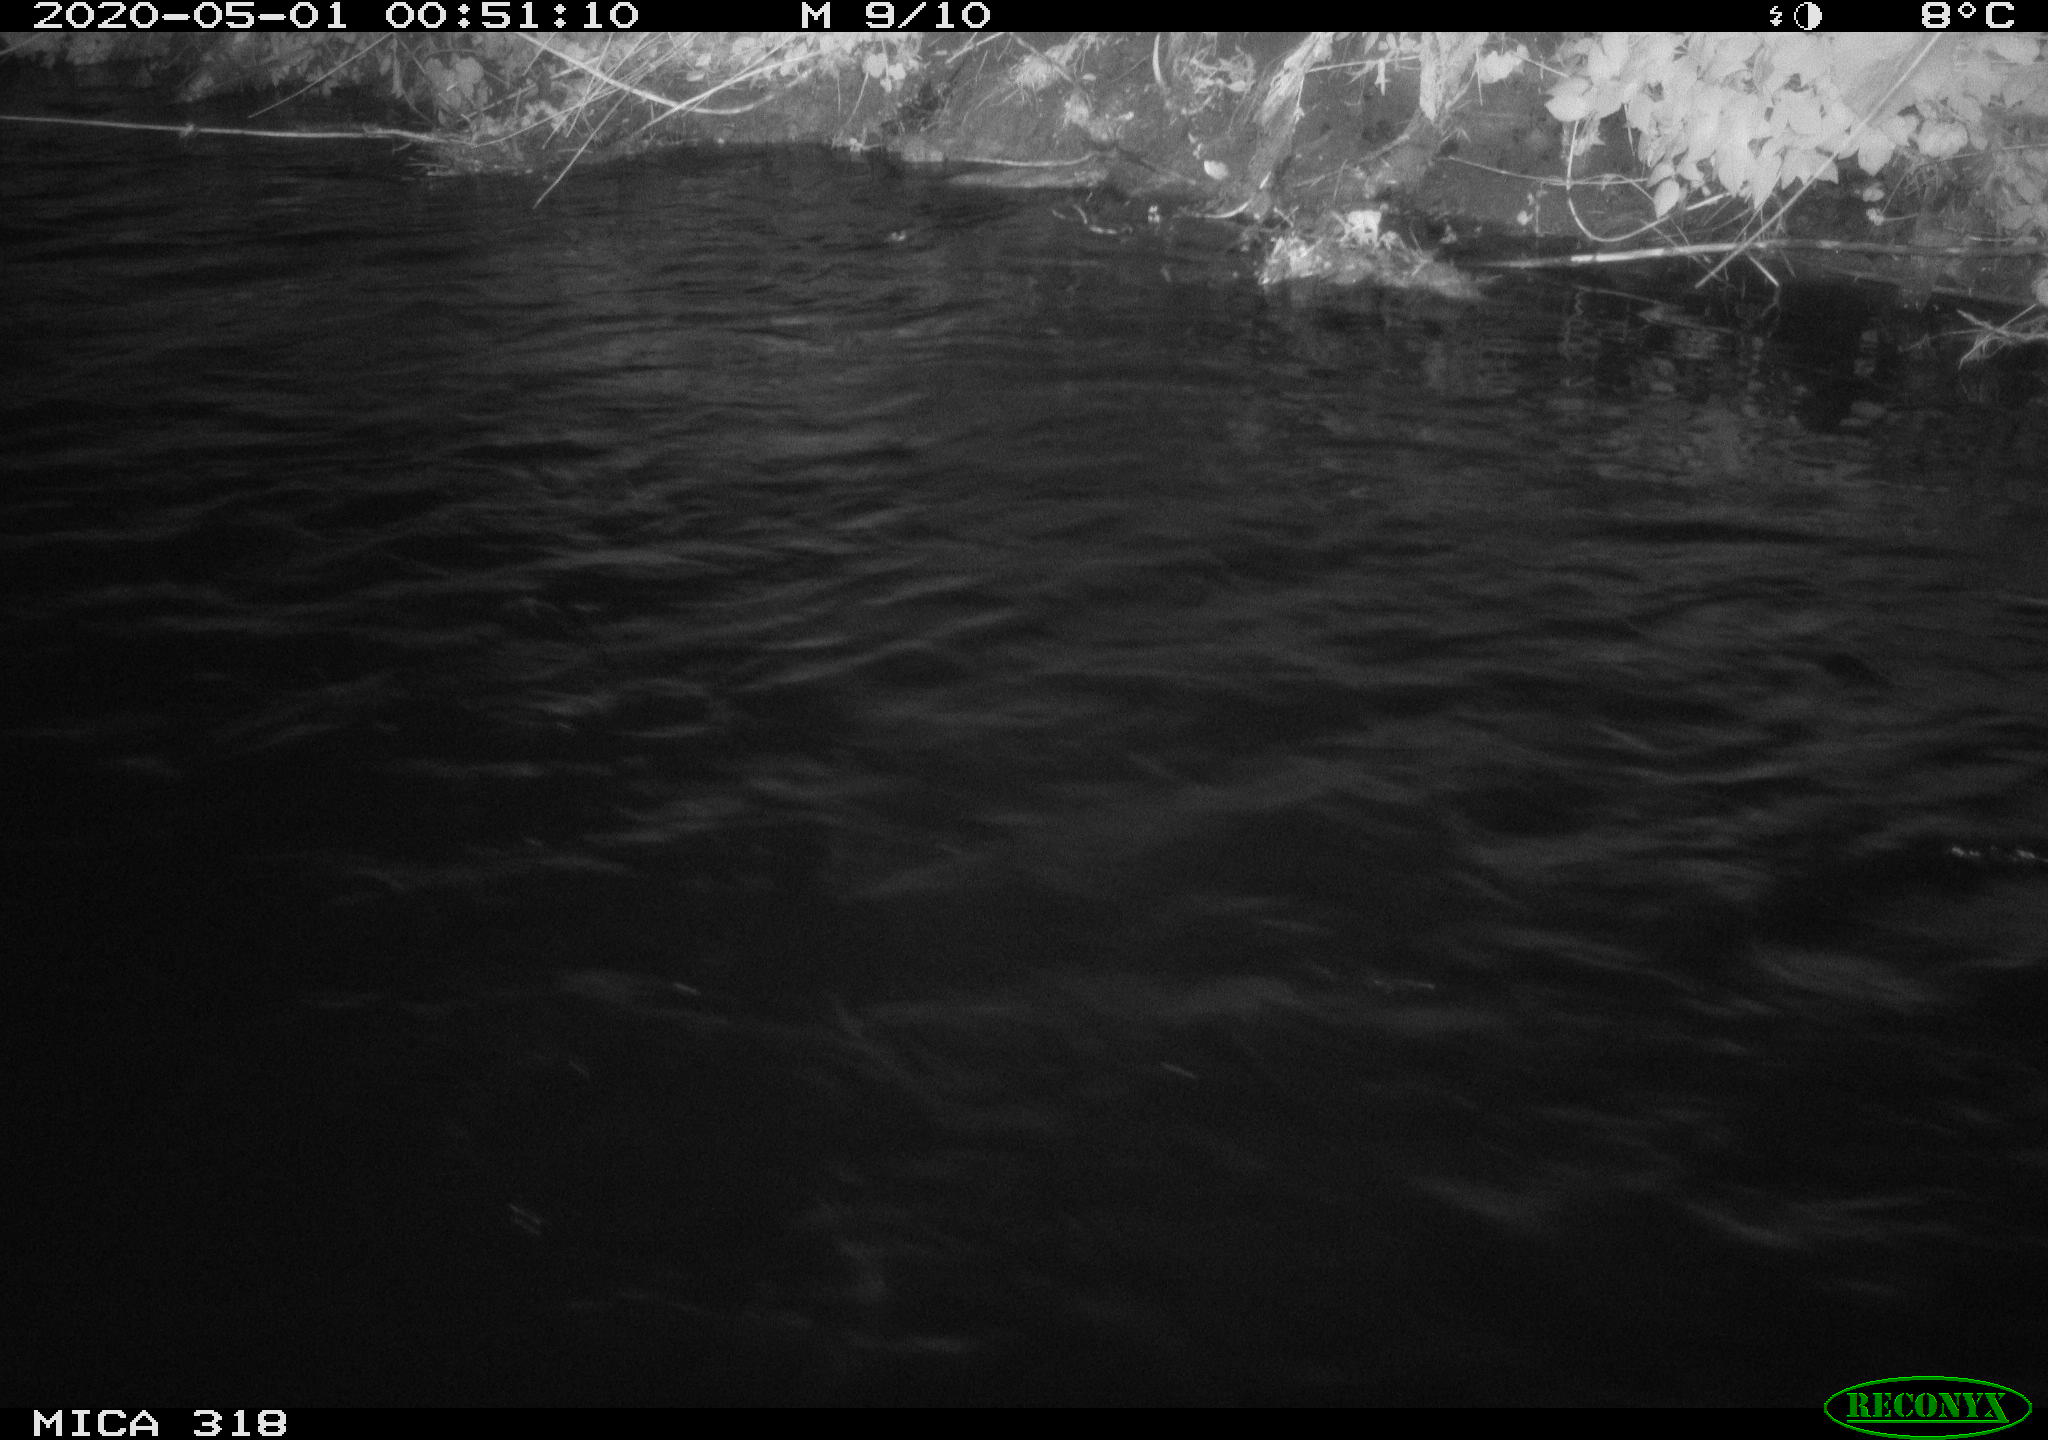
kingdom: Animalia
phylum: Chordata
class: Aves
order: Anseriformes
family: Anatidae
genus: Anas
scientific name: Anas platyrhynchos
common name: Mallard
